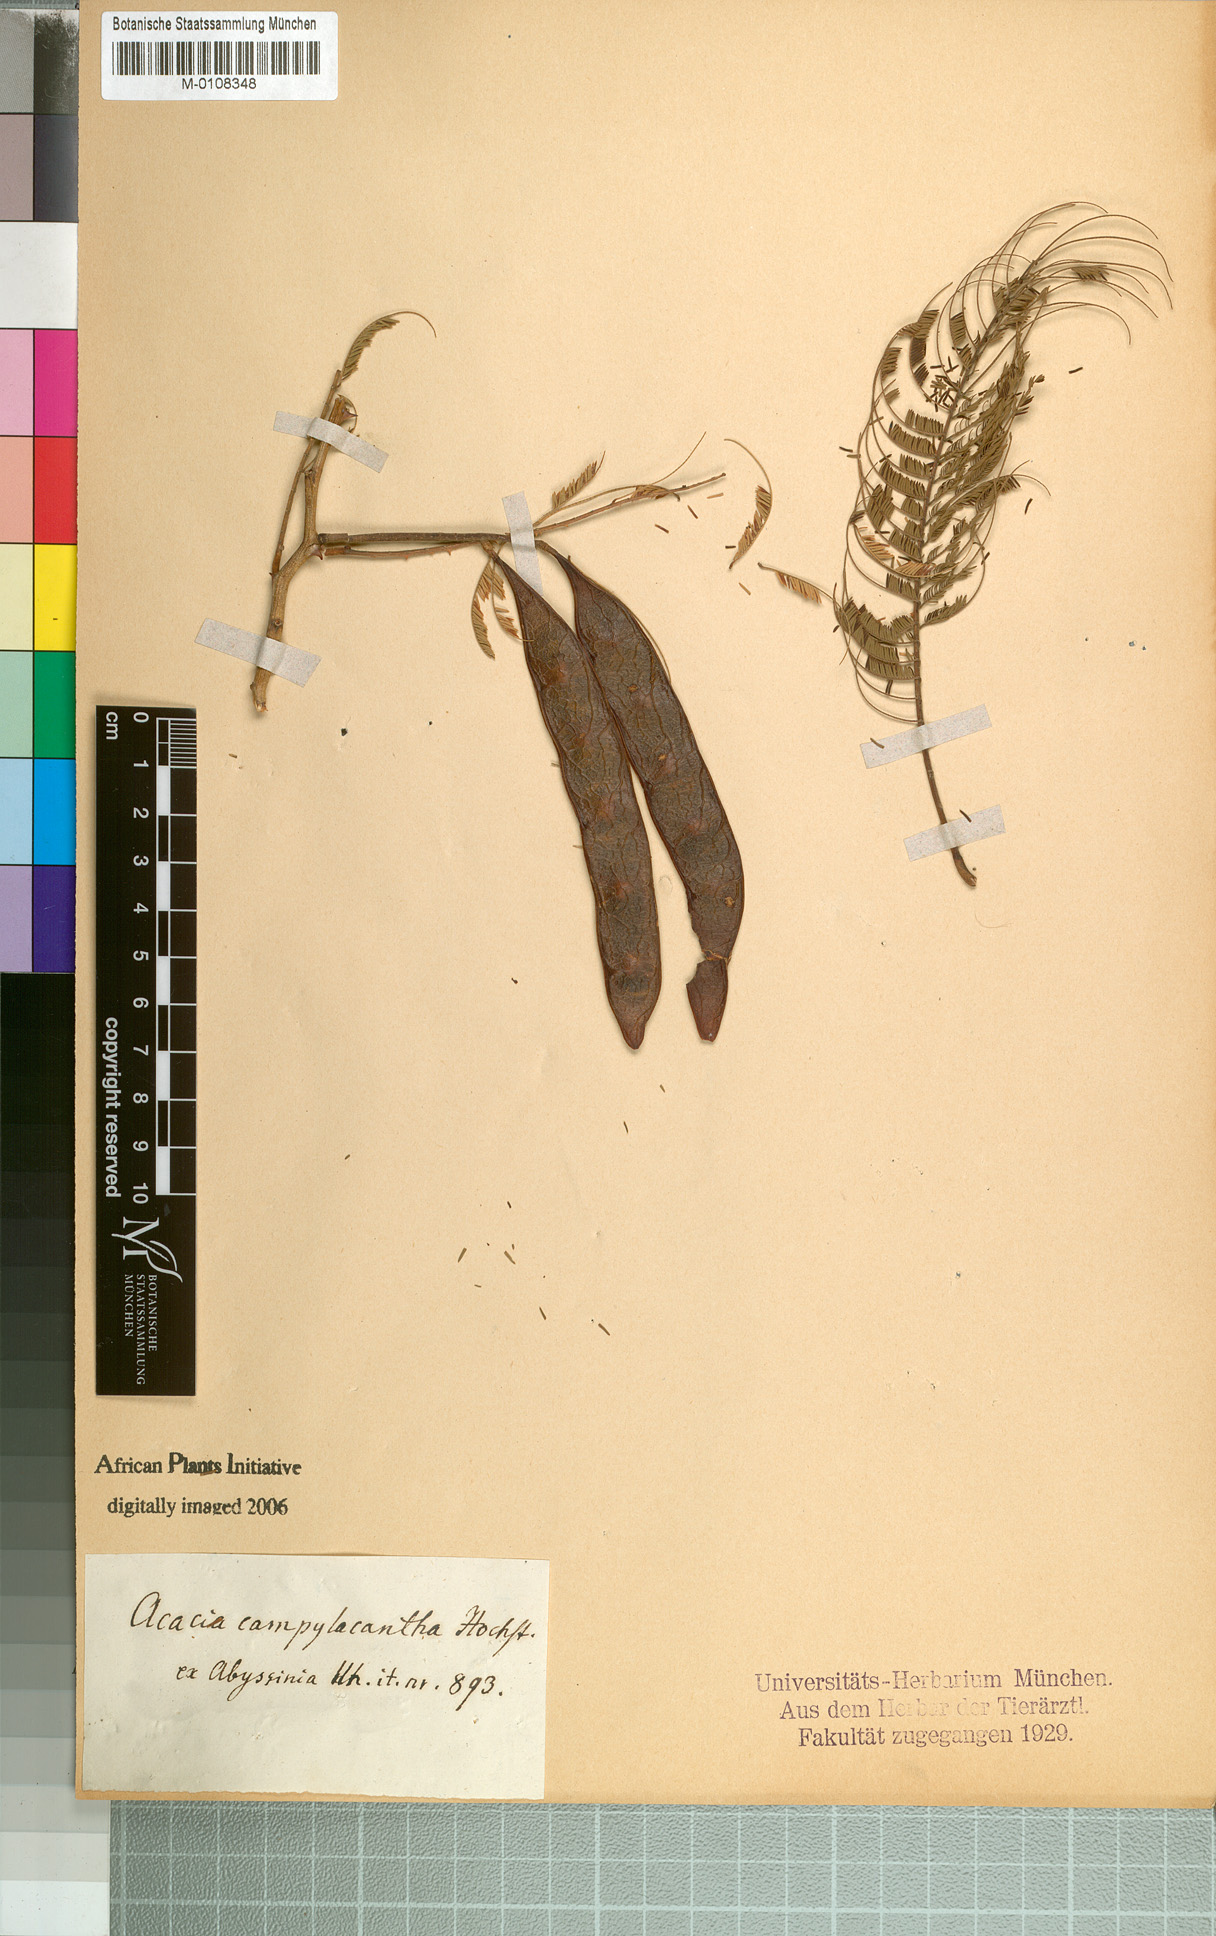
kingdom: Plantae
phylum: Tracheophyta
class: Magnoliopsida
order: Fabales
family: Fabaceae
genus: Senegalia
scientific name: Senegalia polyacantha
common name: Whitethorn
